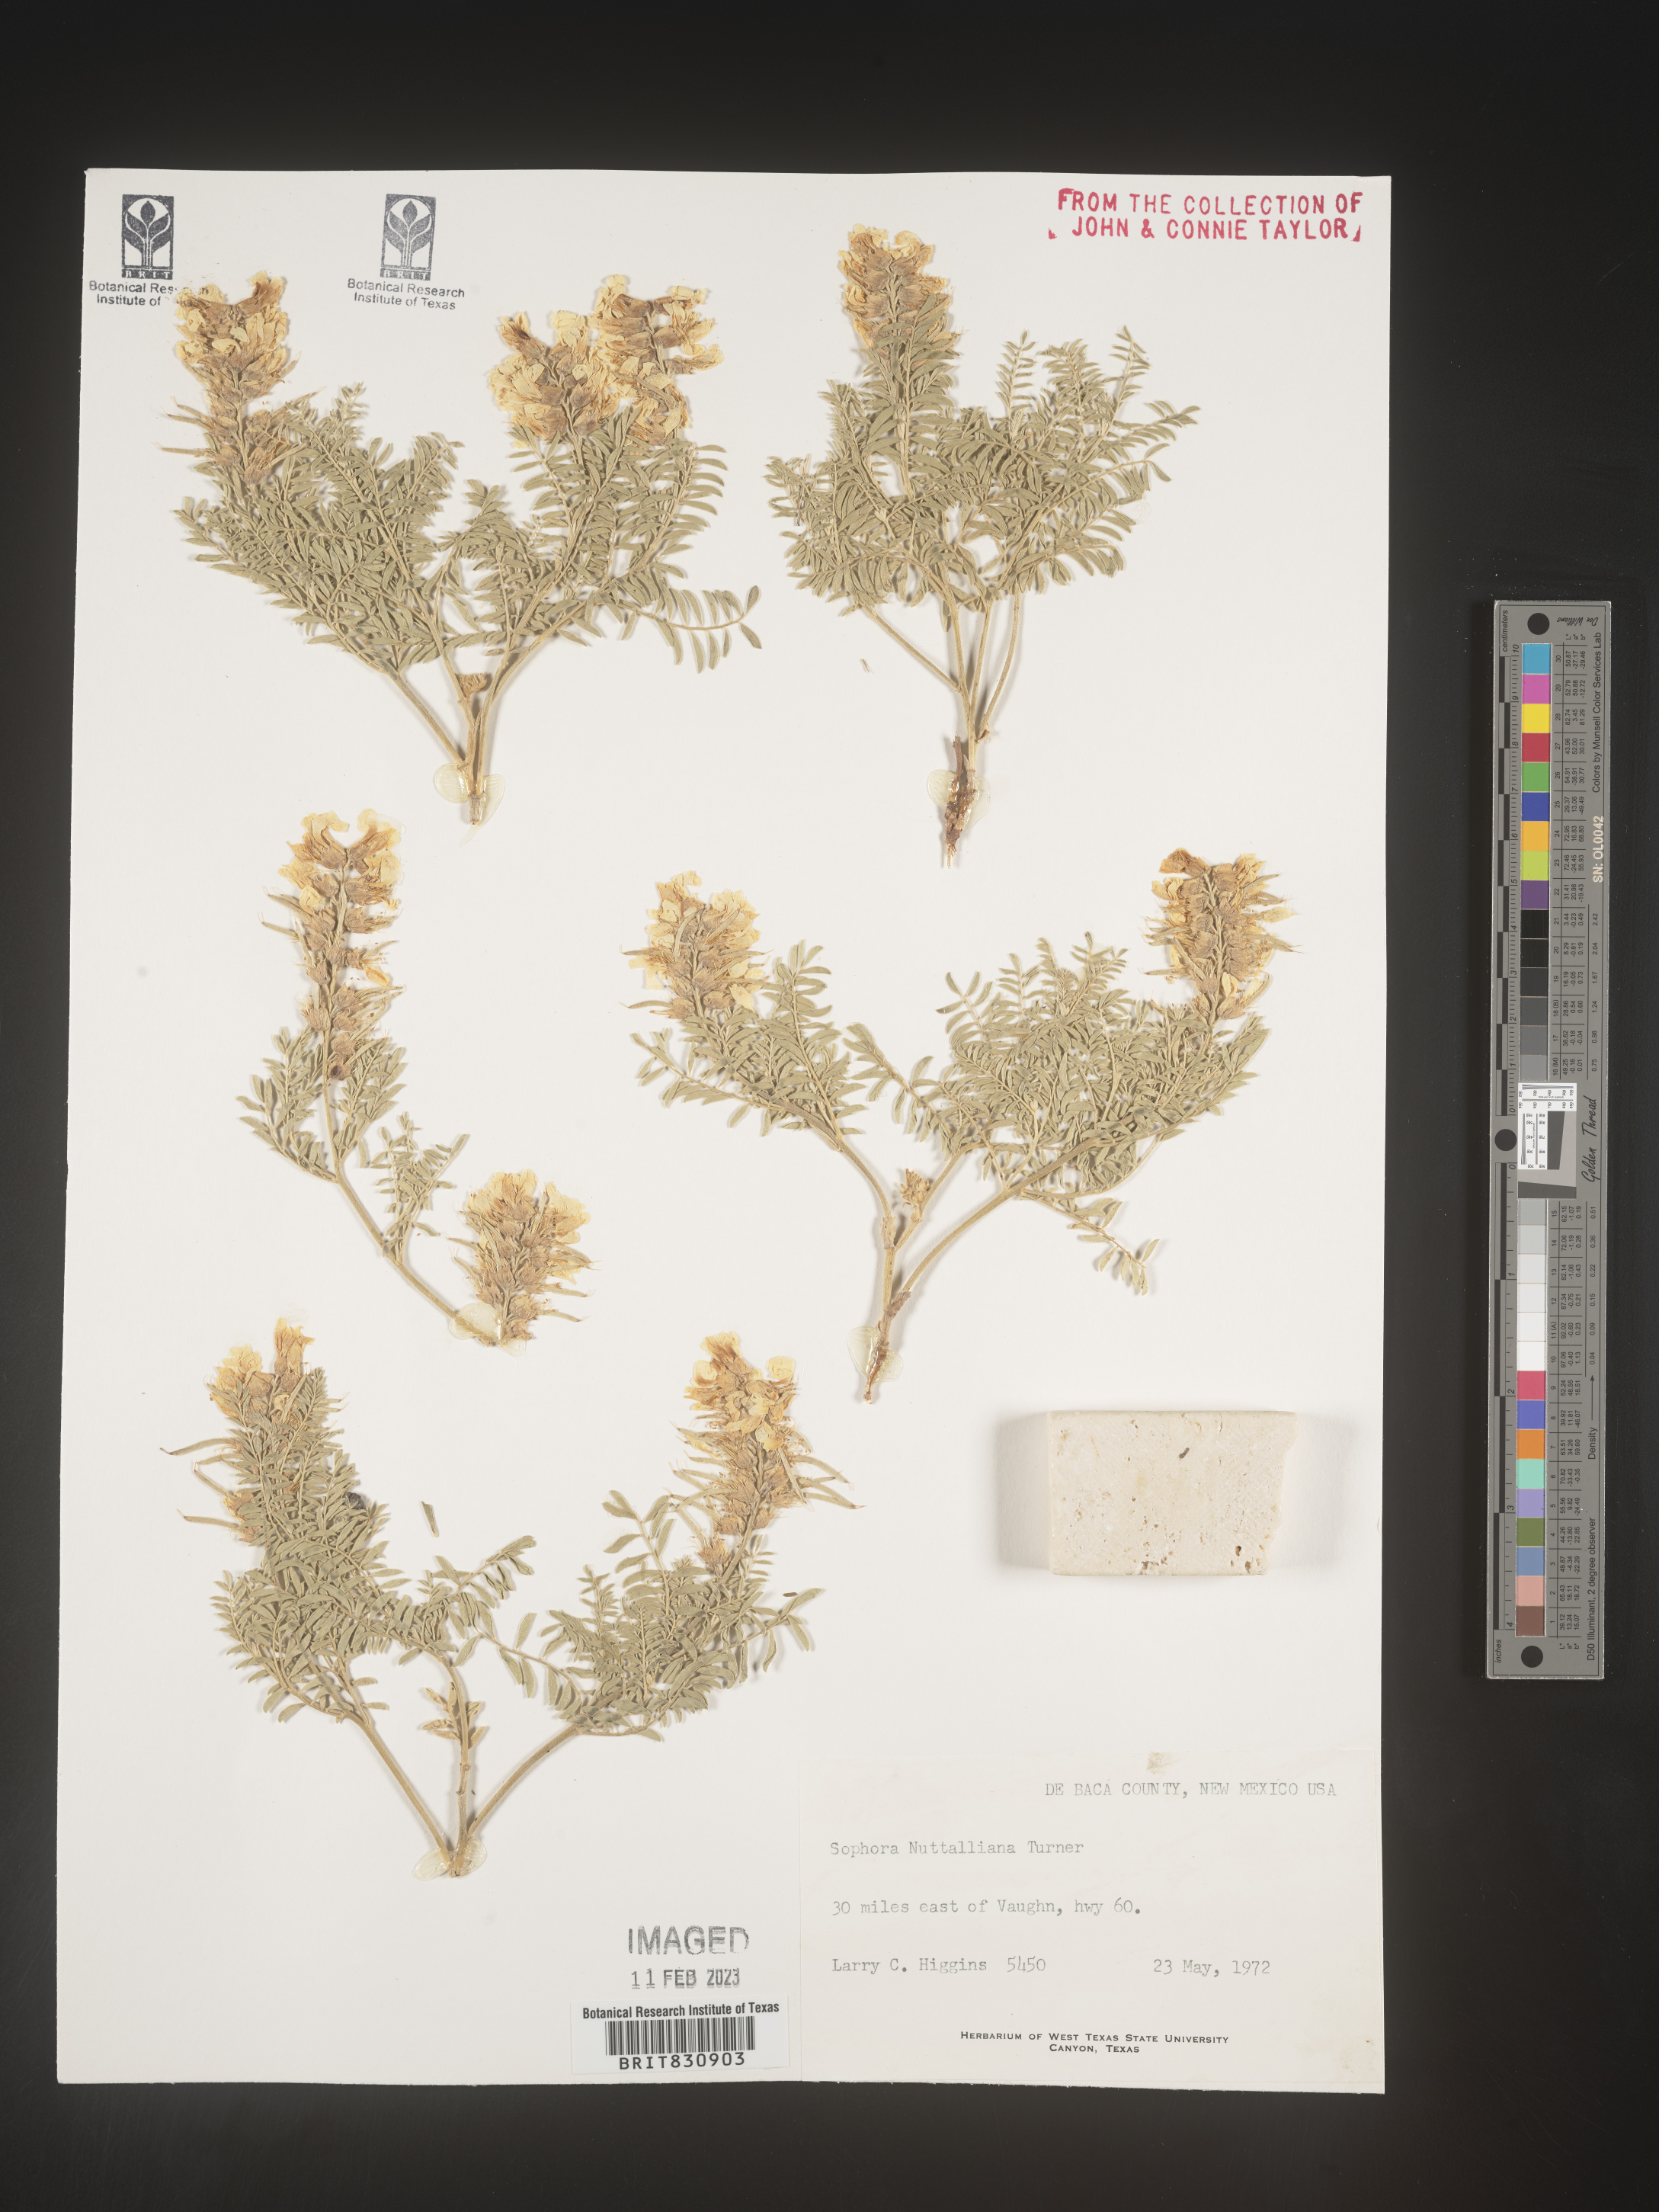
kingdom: Plantae
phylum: Tracheophyta
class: Magnoliopsida
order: Fabales
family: Fabaceae
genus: Sophora
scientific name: Sophora nuttalliana
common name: Silky sophora
